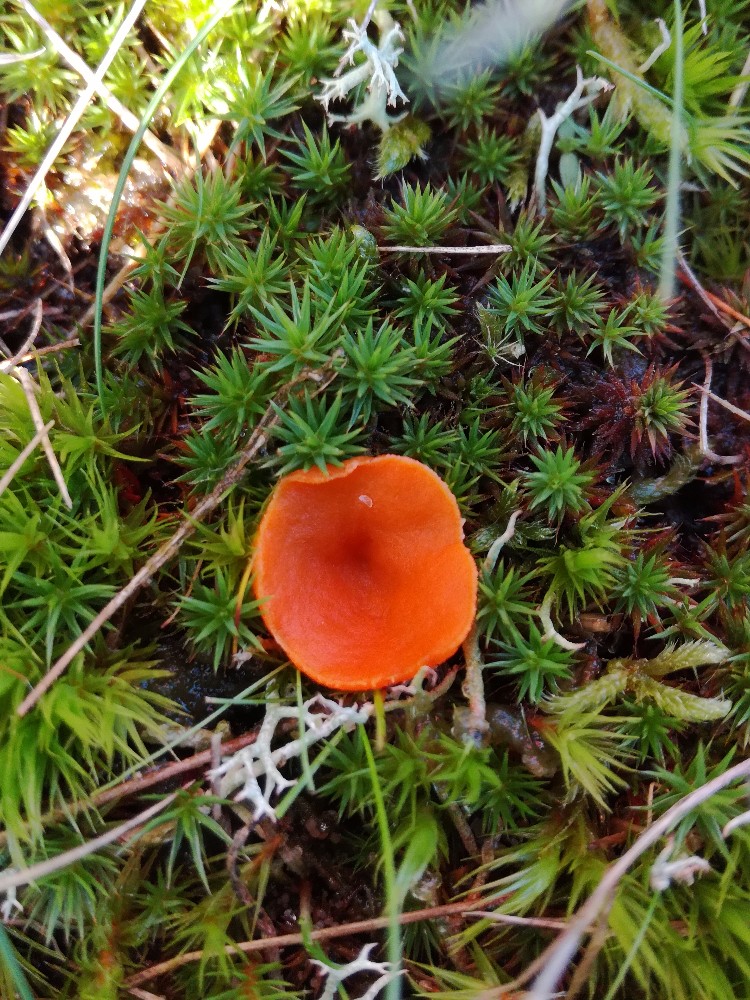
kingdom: Fungi
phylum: Ascomycota
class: Pezizomycetes
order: Pezizales
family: Pyronemataceae
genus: Neottiella
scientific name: Neottiella
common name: mosbæger
